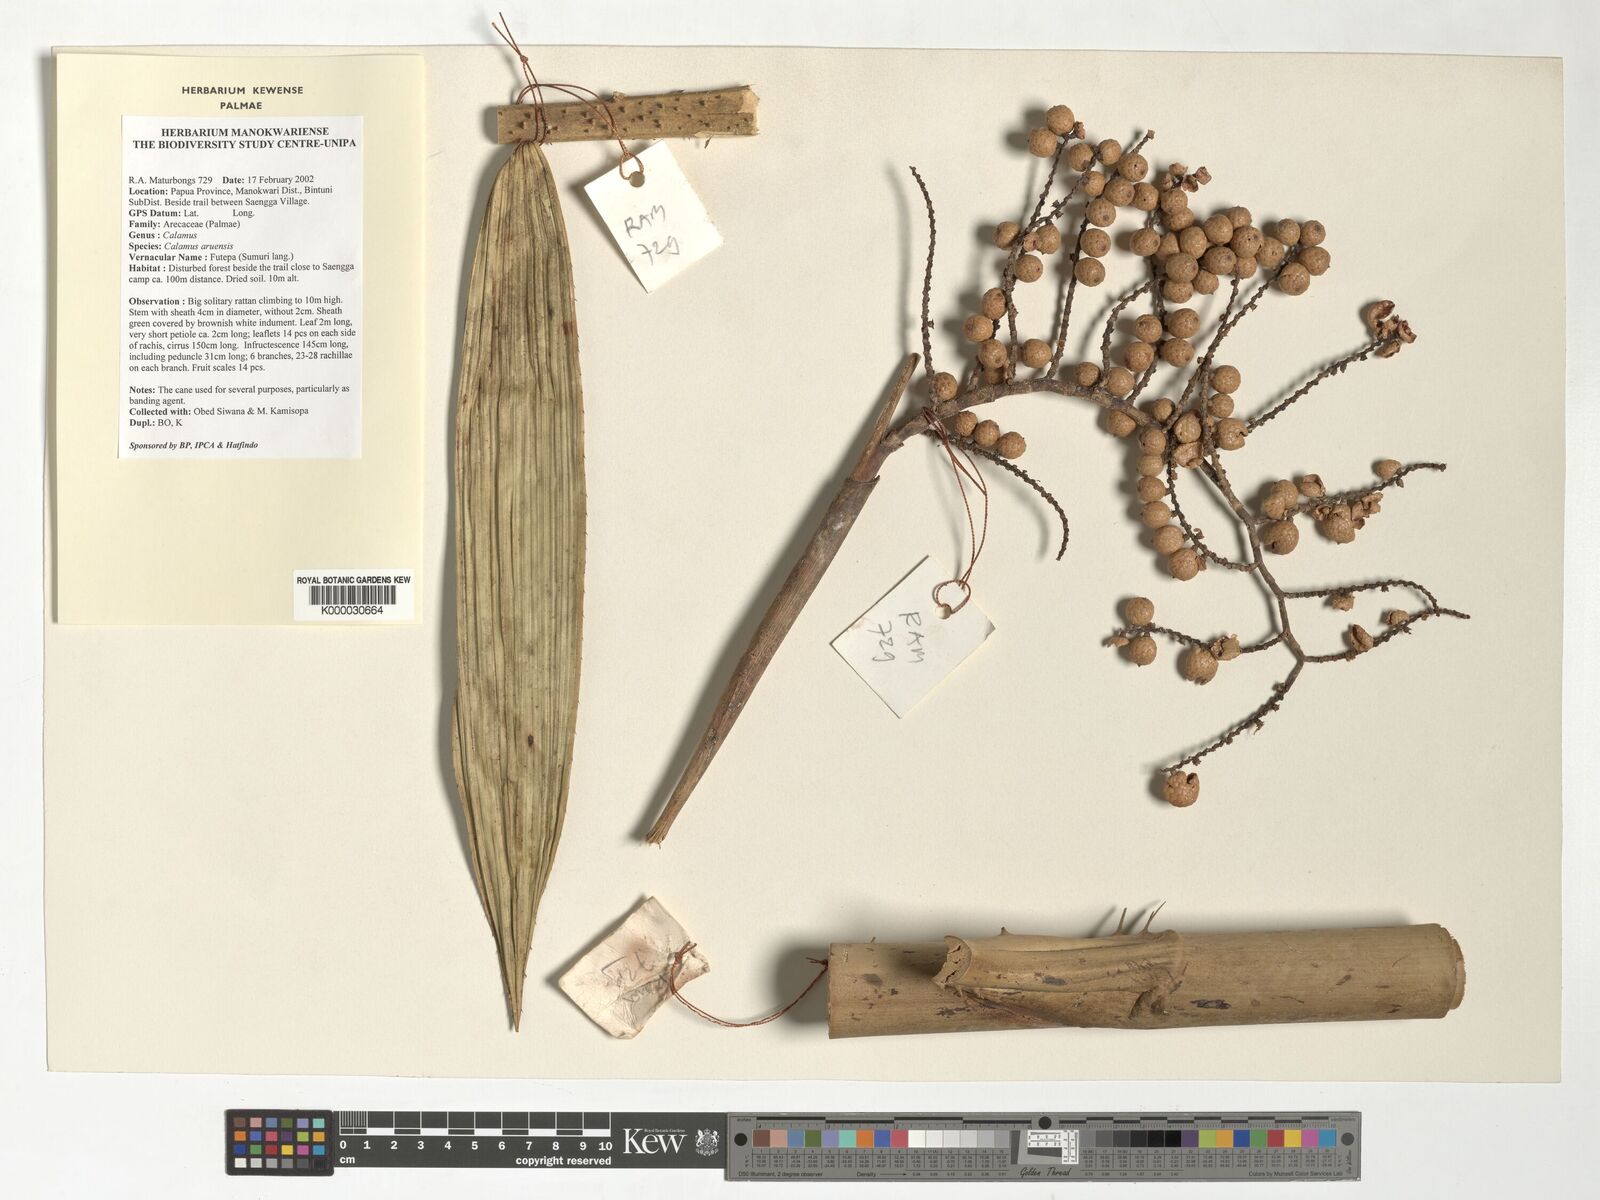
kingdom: Plantae
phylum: Tracheophyta
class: Liliopsida
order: Arecales
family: Arecaceae
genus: Calamus
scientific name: Calamus aruensis
